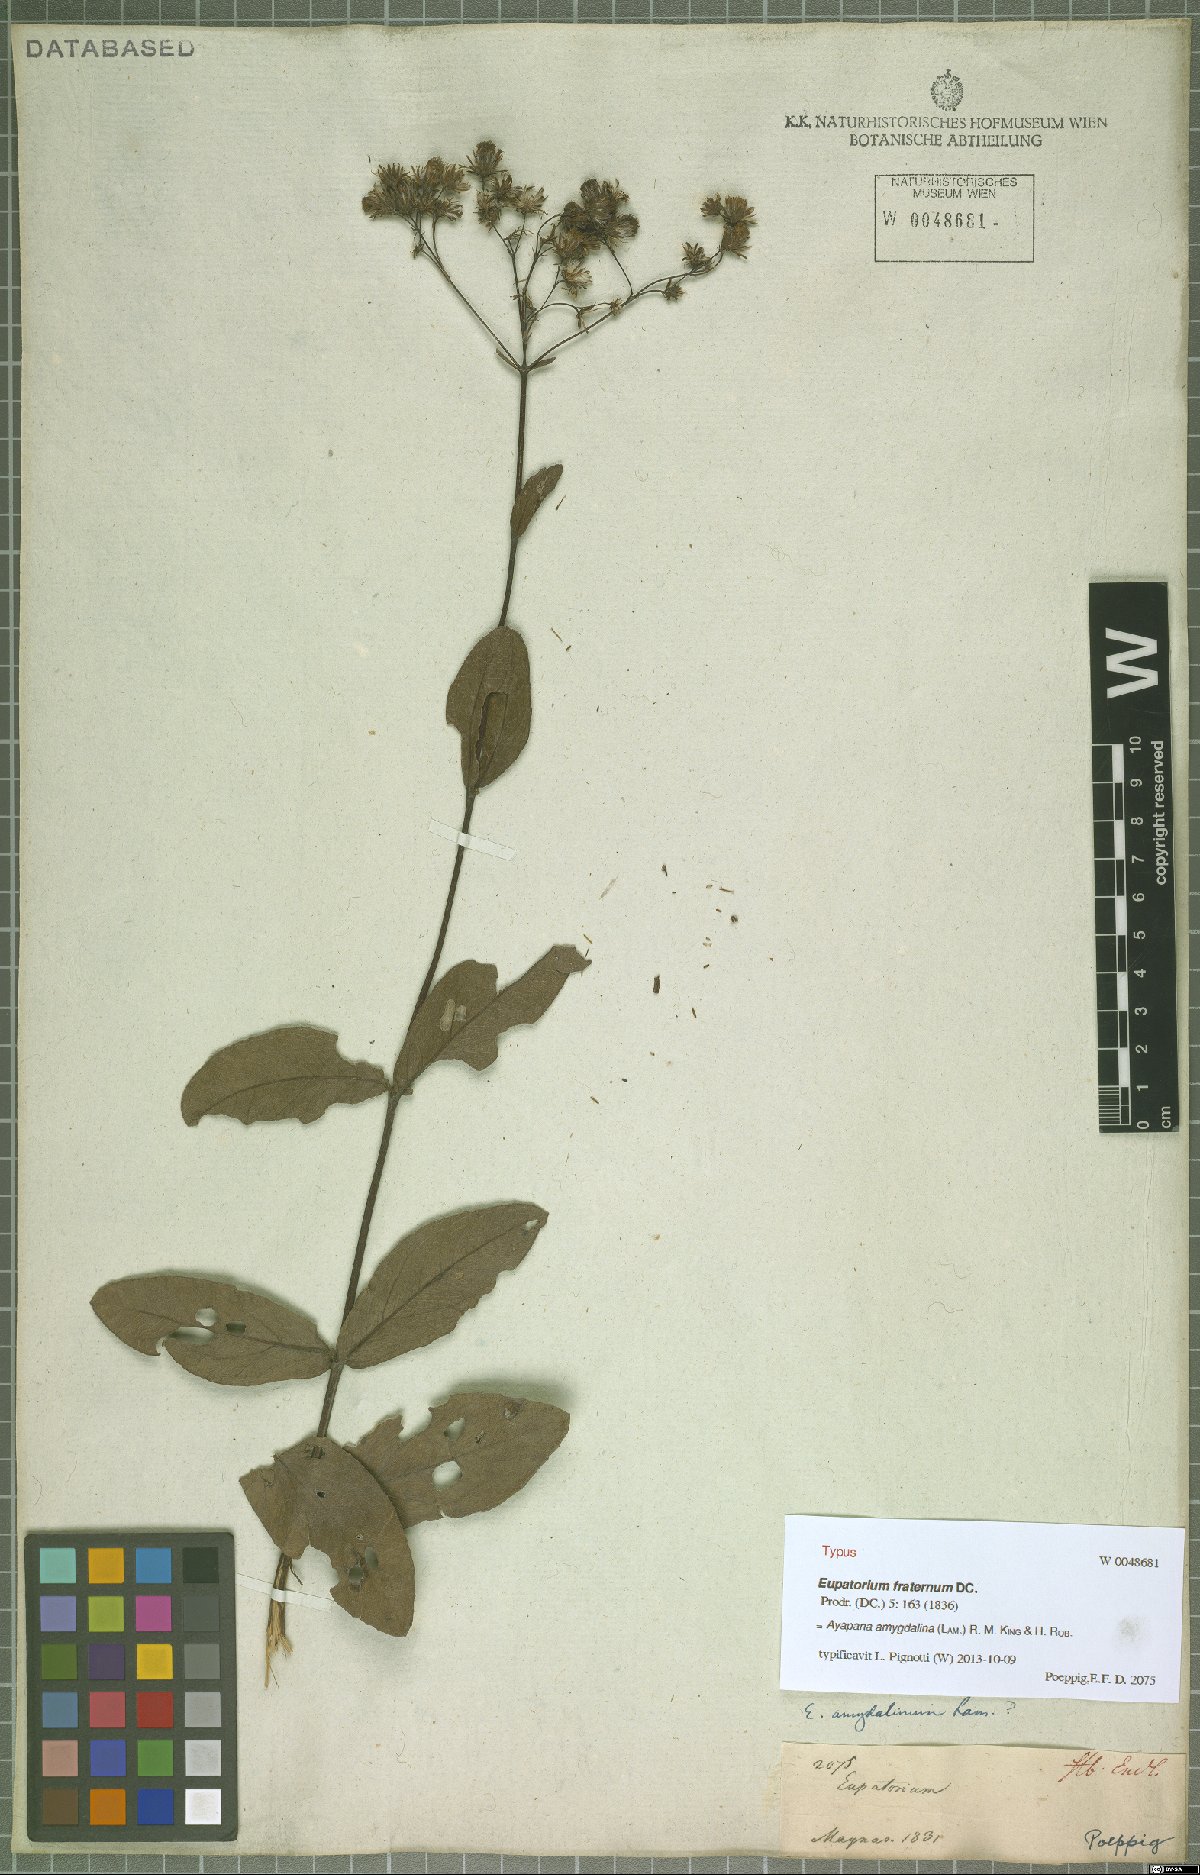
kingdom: Plantae
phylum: Tracheophyta
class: Magnoliopsida
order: Asterales
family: Asteraceae
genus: Ayapana
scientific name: Ayapana amygdalina
